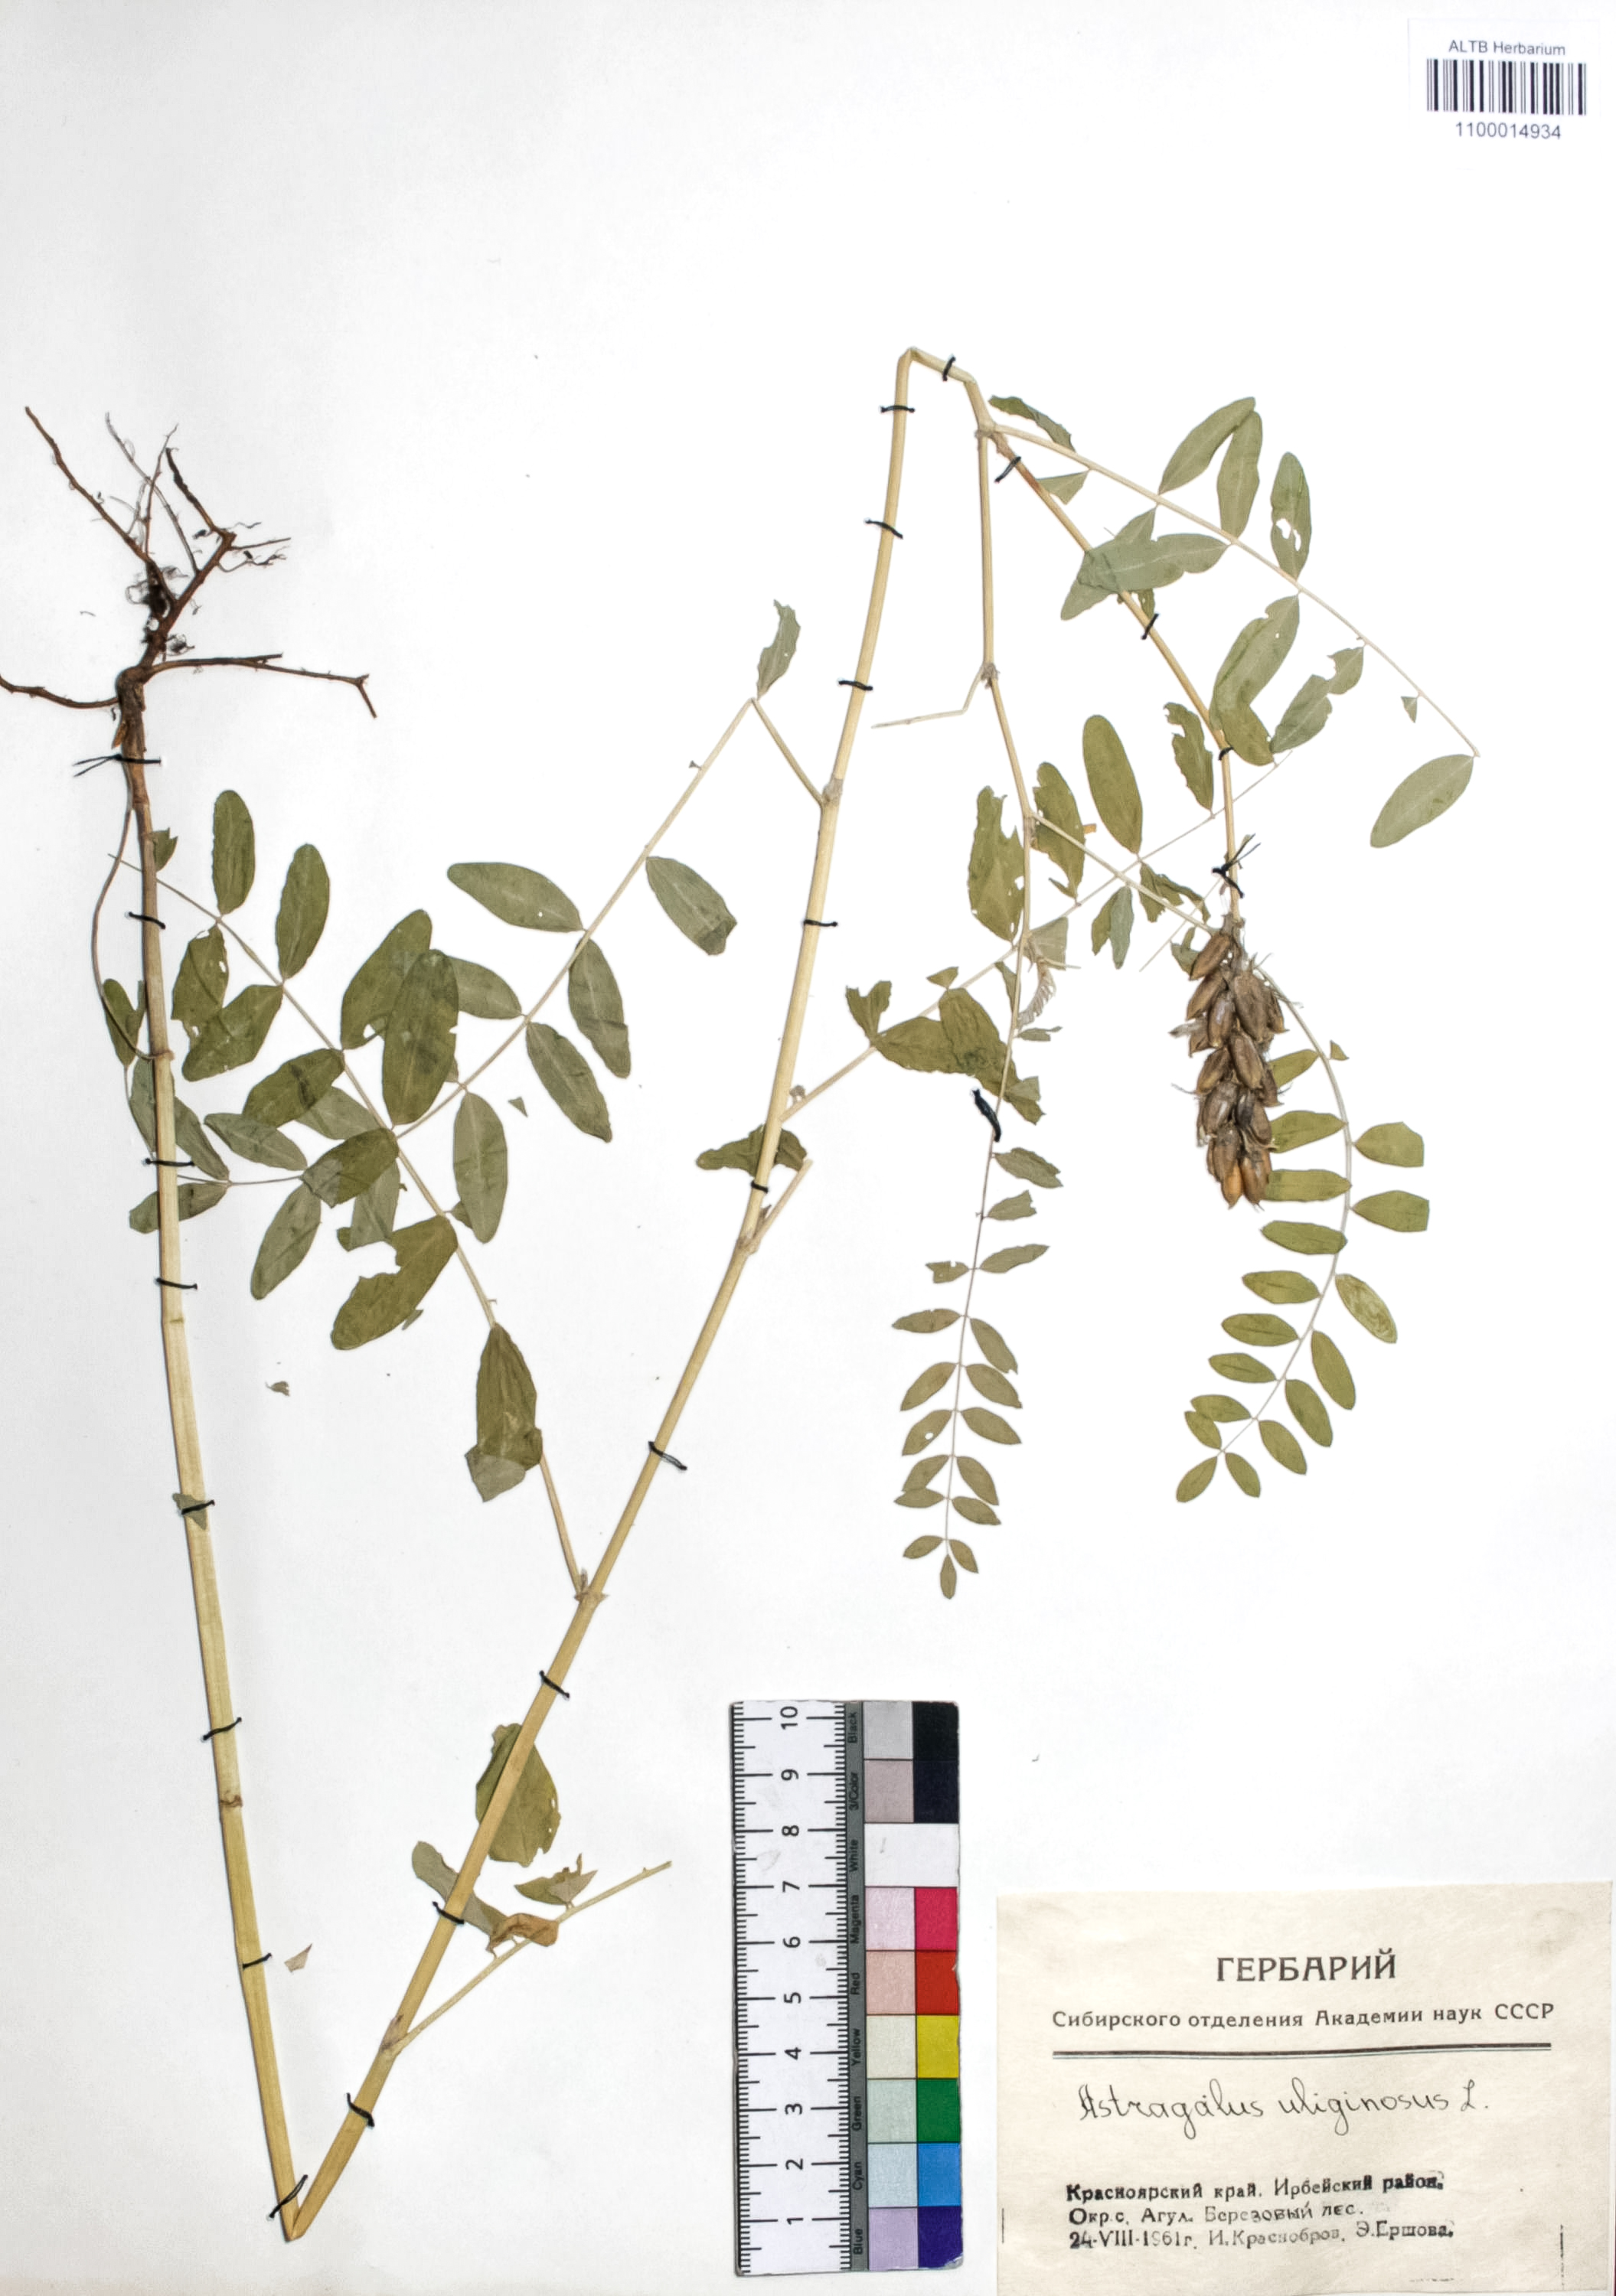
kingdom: Plantae
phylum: Tracheophyta
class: Magnoliopsida
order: Fabales
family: Fabaceae
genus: Astragalus
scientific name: Astragalus uliginosus
